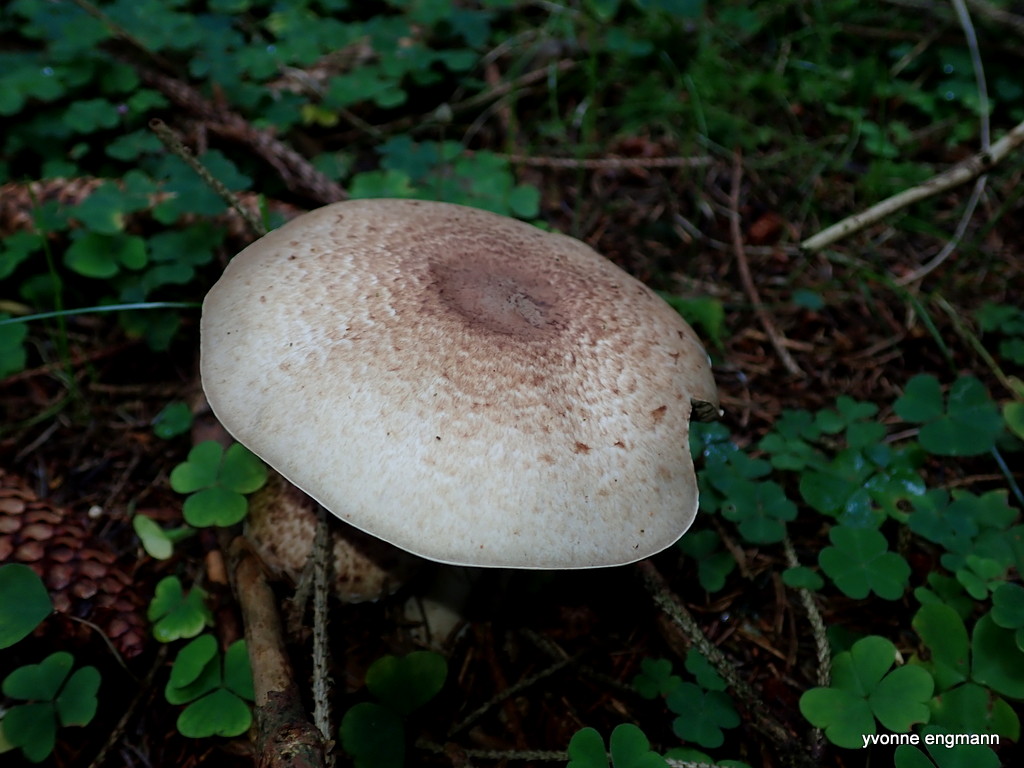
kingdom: Fungi
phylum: Basidiomycota
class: Agaricomycetes
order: Agaricales
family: Agaricaceae
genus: Agaricus
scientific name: Agaricus
